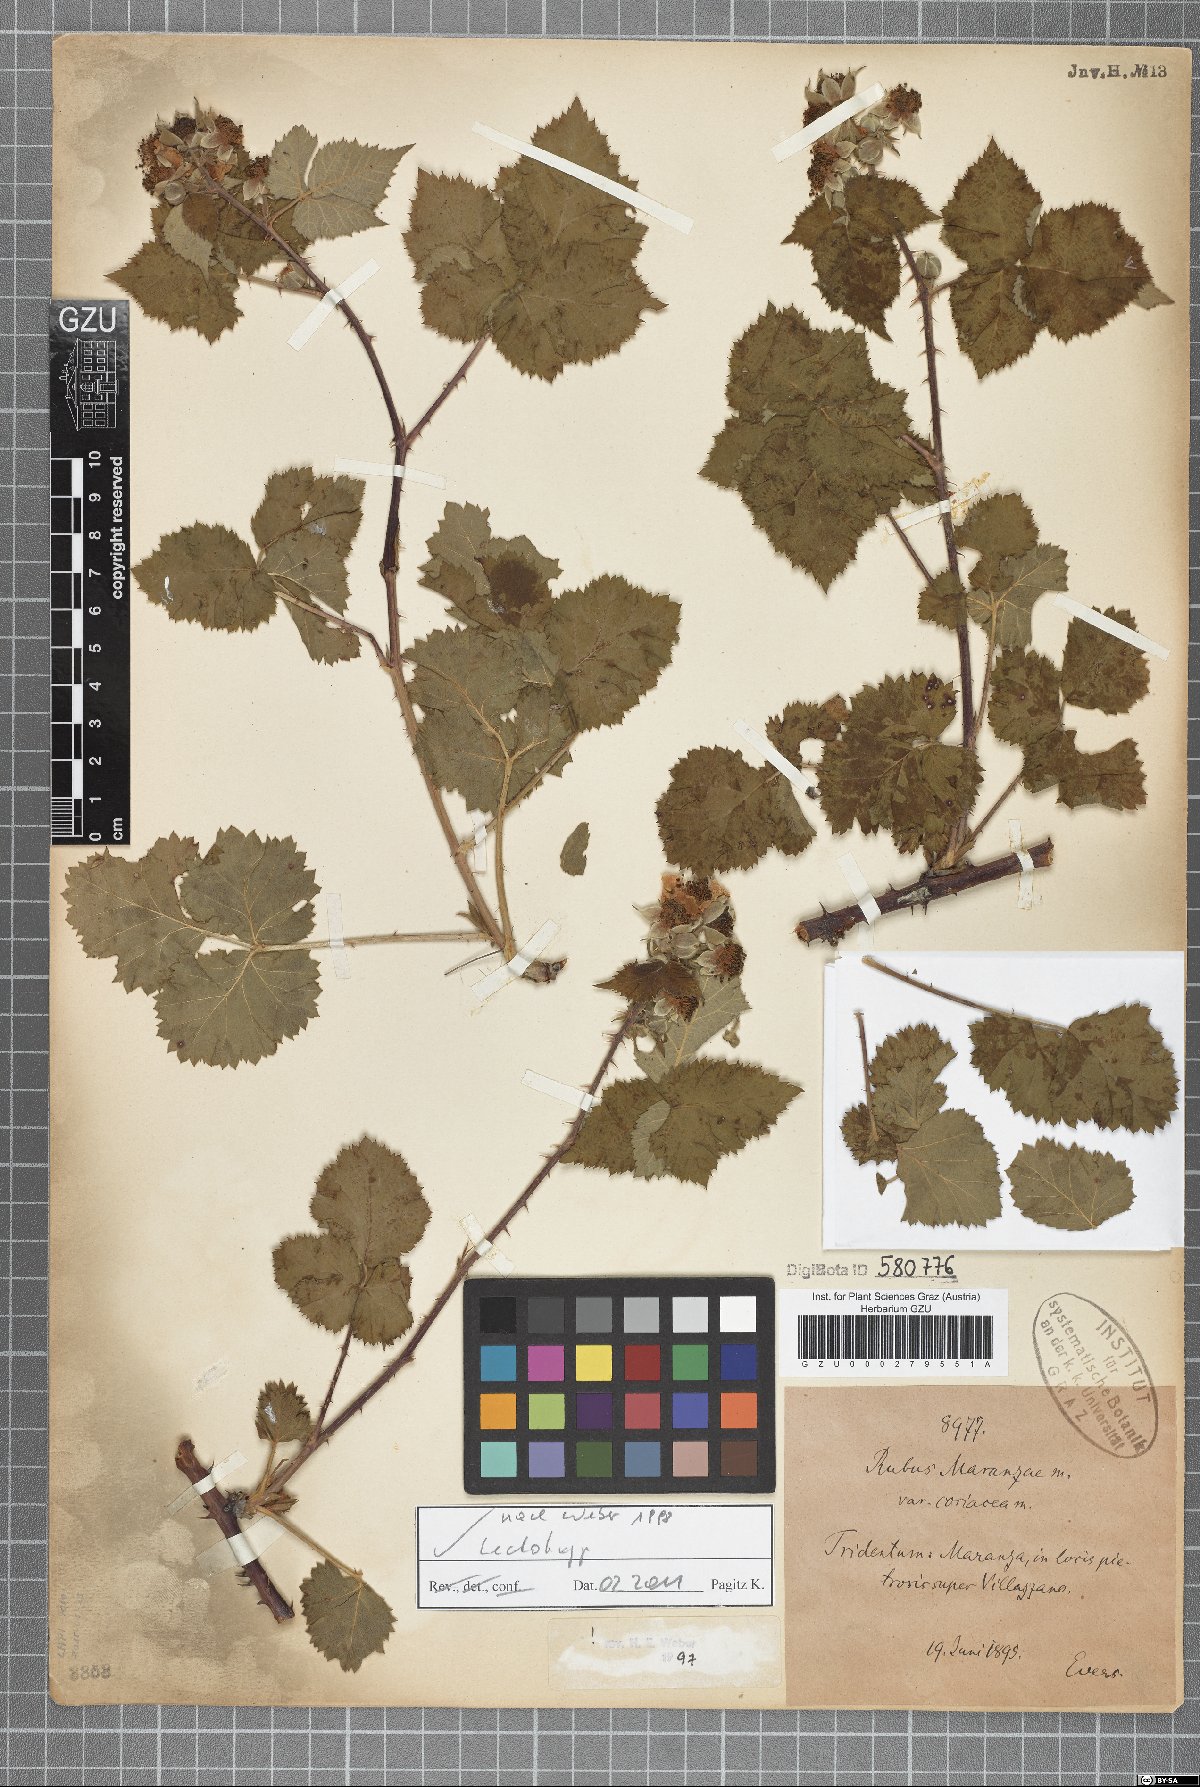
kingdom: Plantae
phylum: Tracheophyta
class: Magnoliopsida
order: Rosales
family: Rosaceae
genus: Rubus
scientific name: Rubus maranzae
